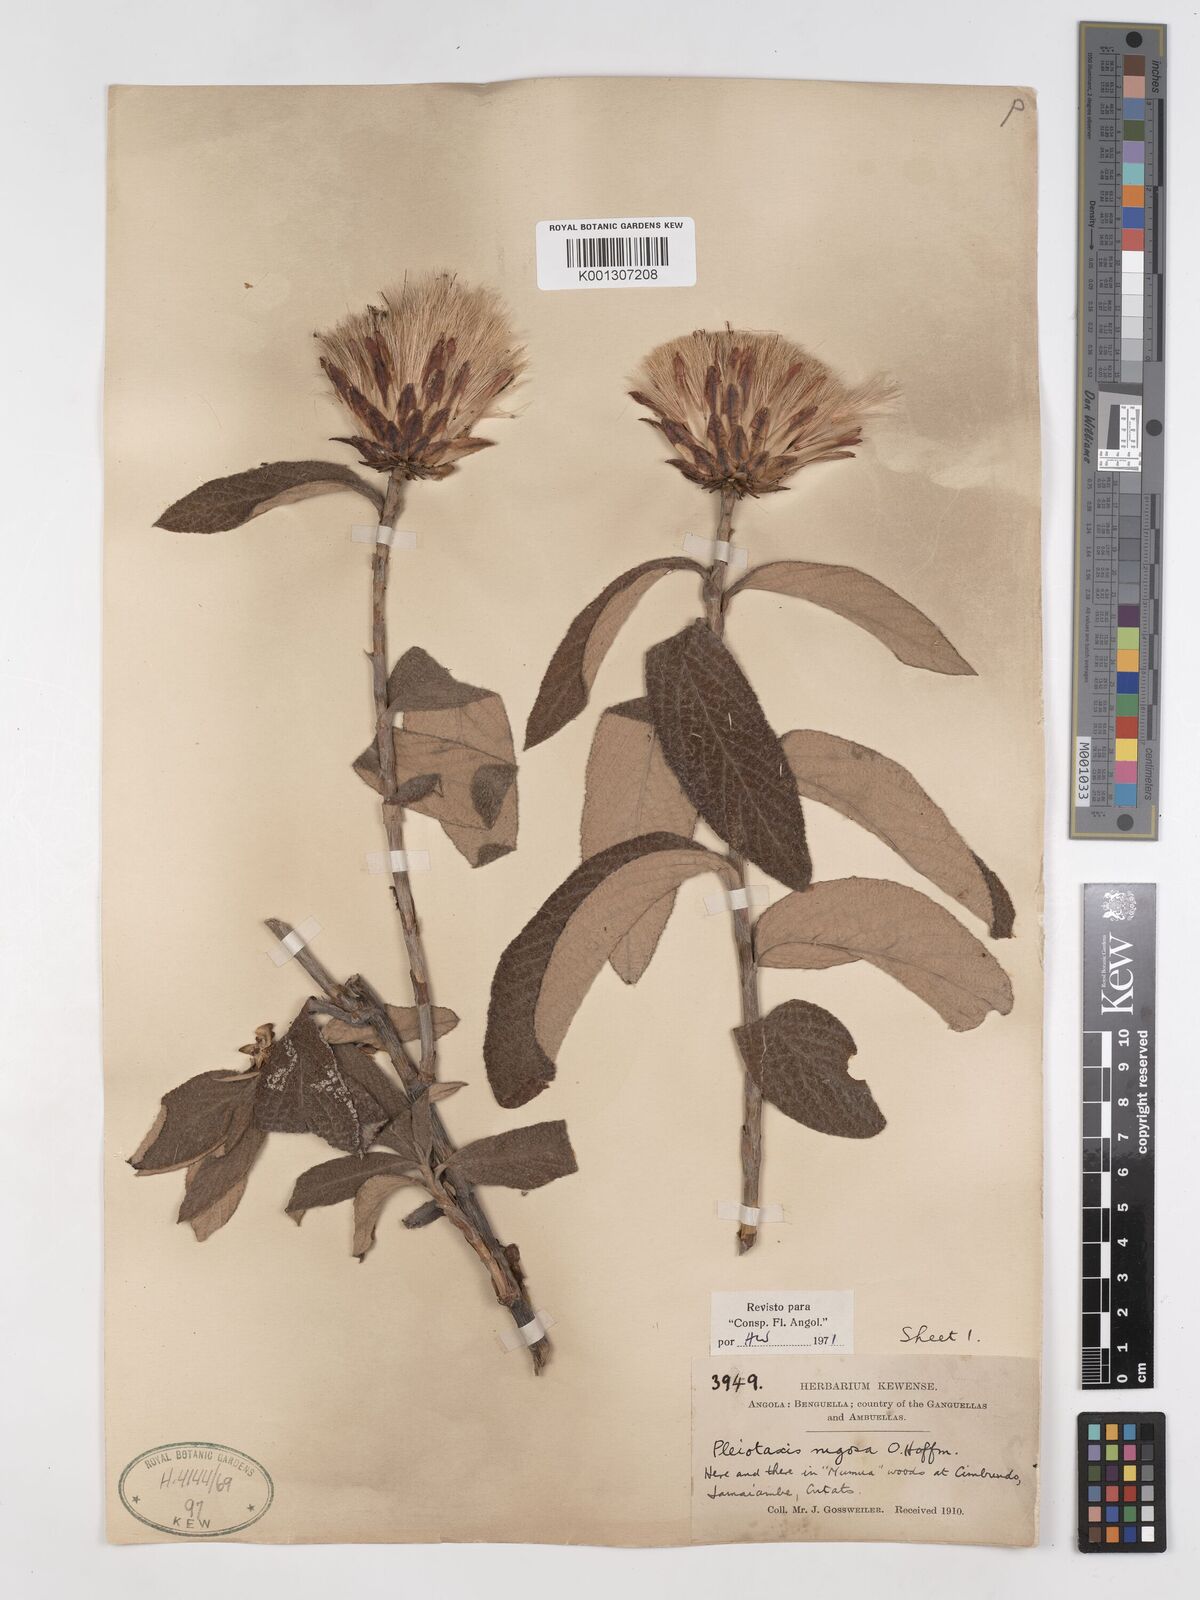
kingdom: Plantae
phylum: Tracheophyta
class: Magnoliopsida
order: Asterales
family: Asteraceae
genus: Pleiotaxis
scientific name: Pleiotaxis rugosa
